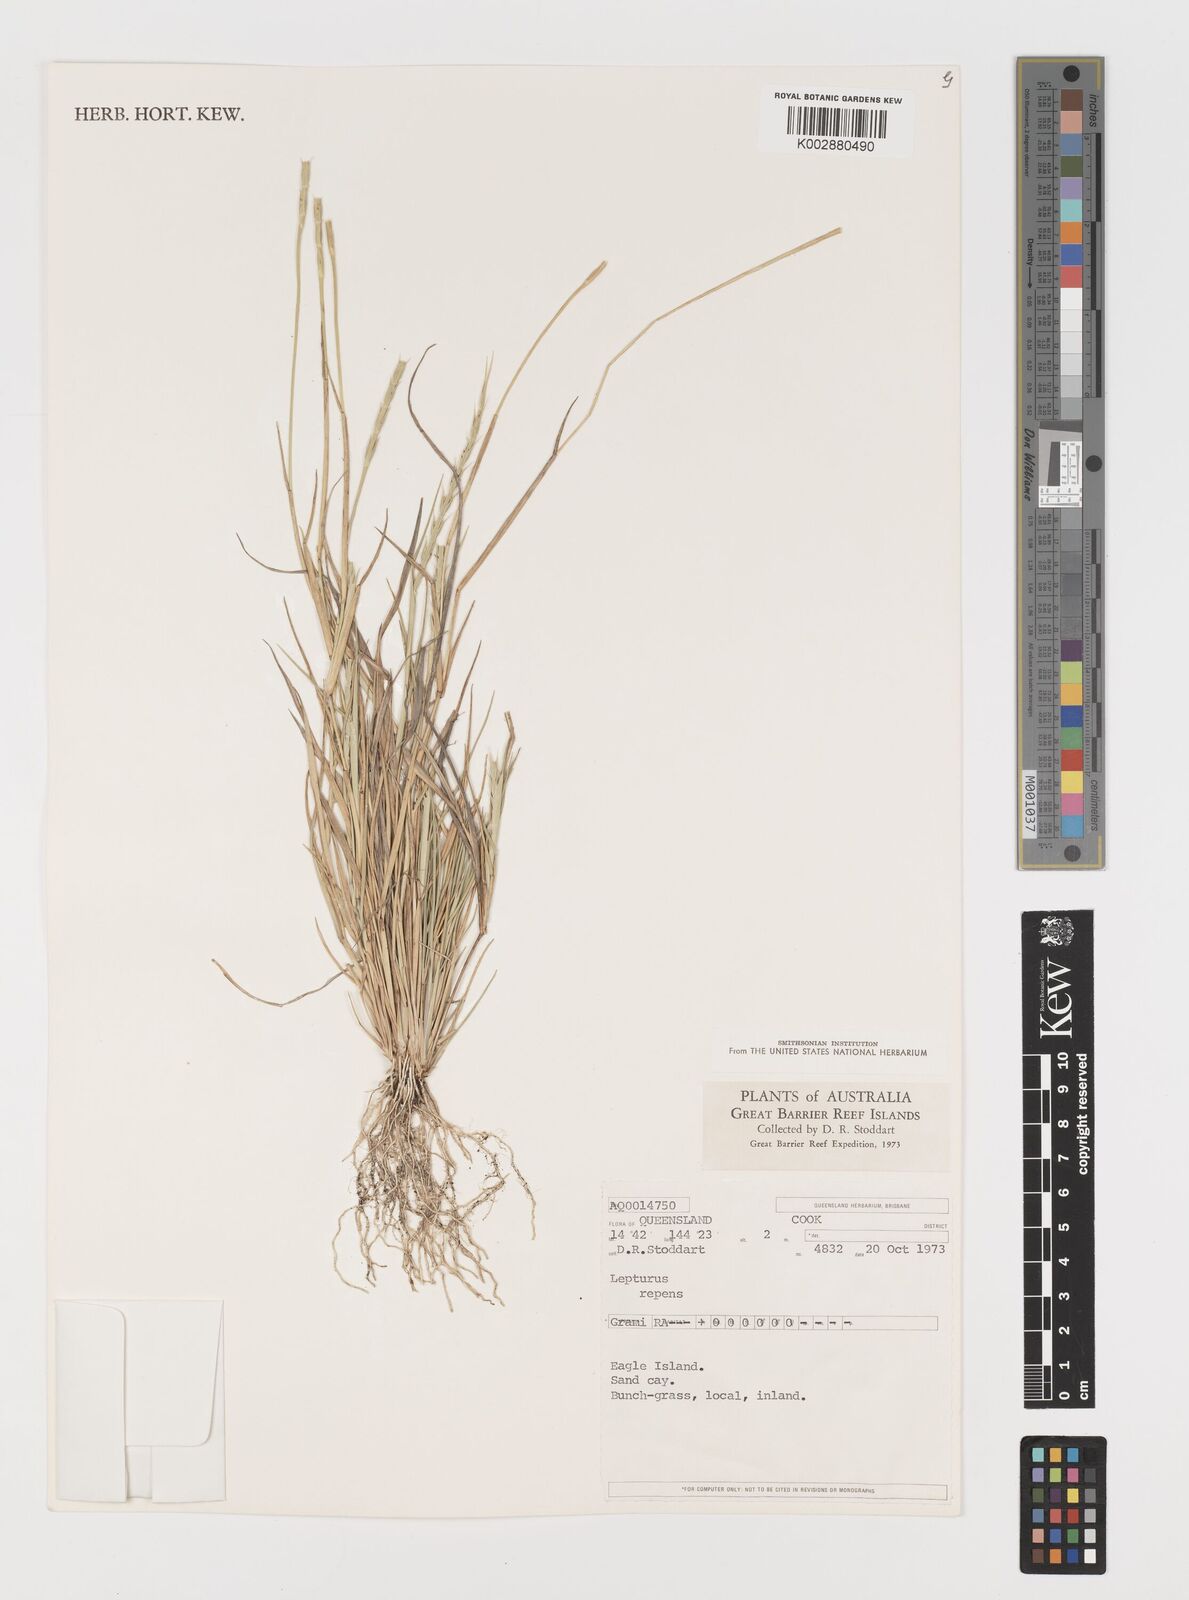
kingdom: Plantae
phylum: Tracheophyta
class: Liliopsida
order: Poales
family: Poaceae
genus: Lepturus
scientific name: Lepturus repens
